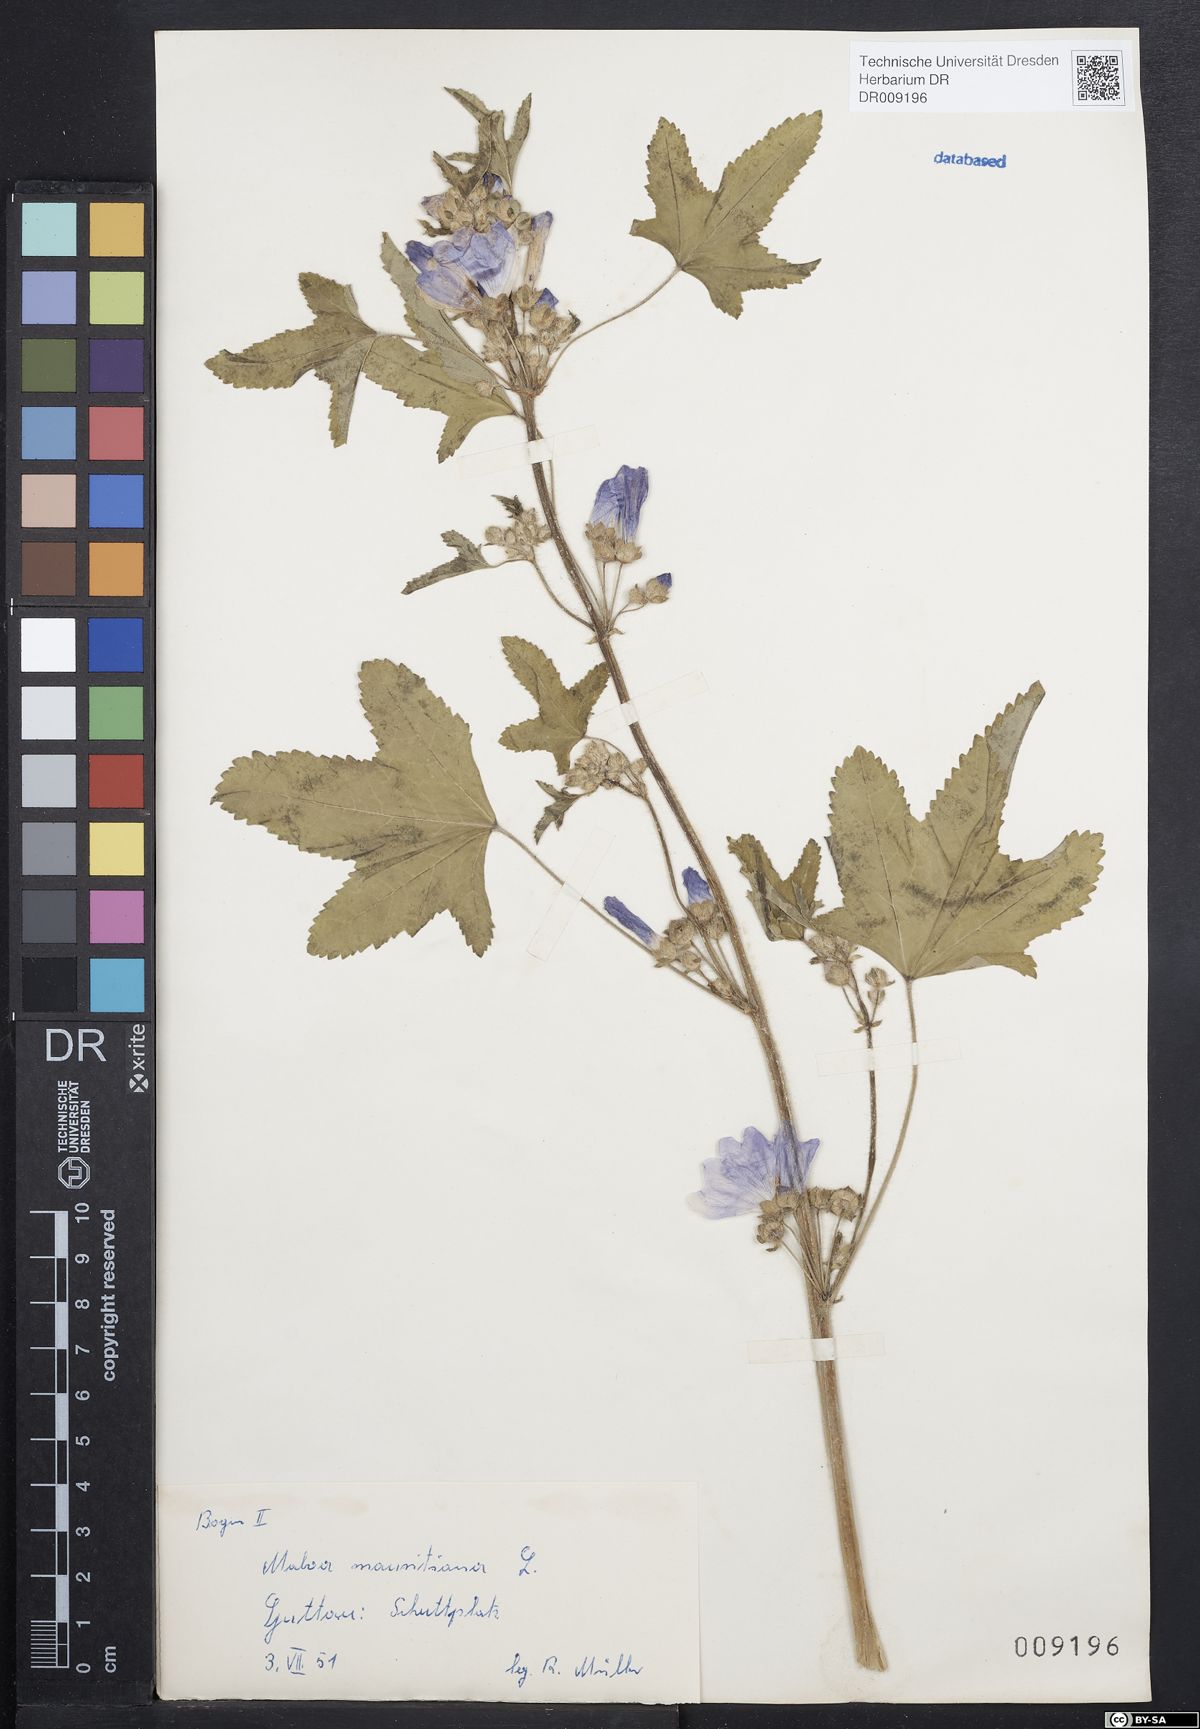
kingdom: Plantae
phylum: Tracheophyta
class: Magnoliopsida
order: Malvales
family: Malvaceae
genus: Malva
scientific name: Malva sylvestris
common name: Common mallow
